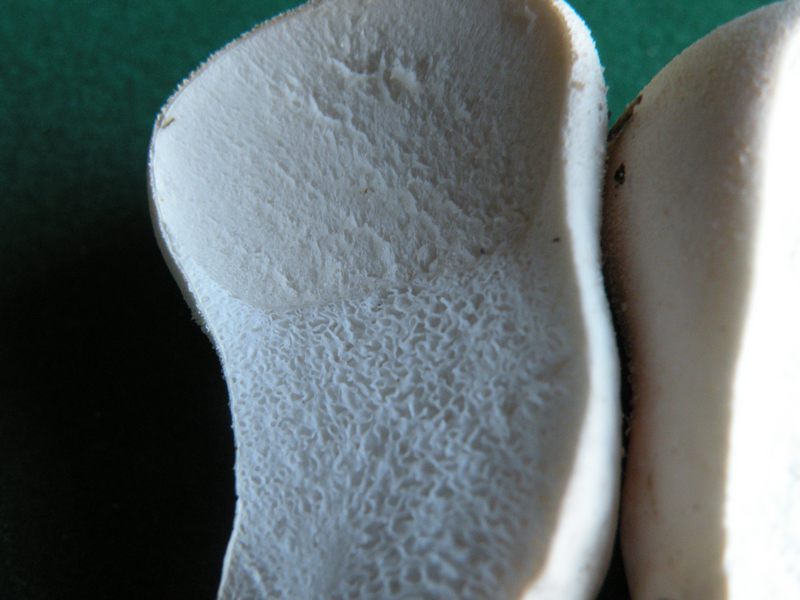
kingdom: Fungi
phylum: Basidiomycota
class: Agaricomycetes
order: Agaricales
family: Lycoperdaceae
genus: Lycoperdon
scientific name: Lycoperdon pratense
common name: flad støvbold
